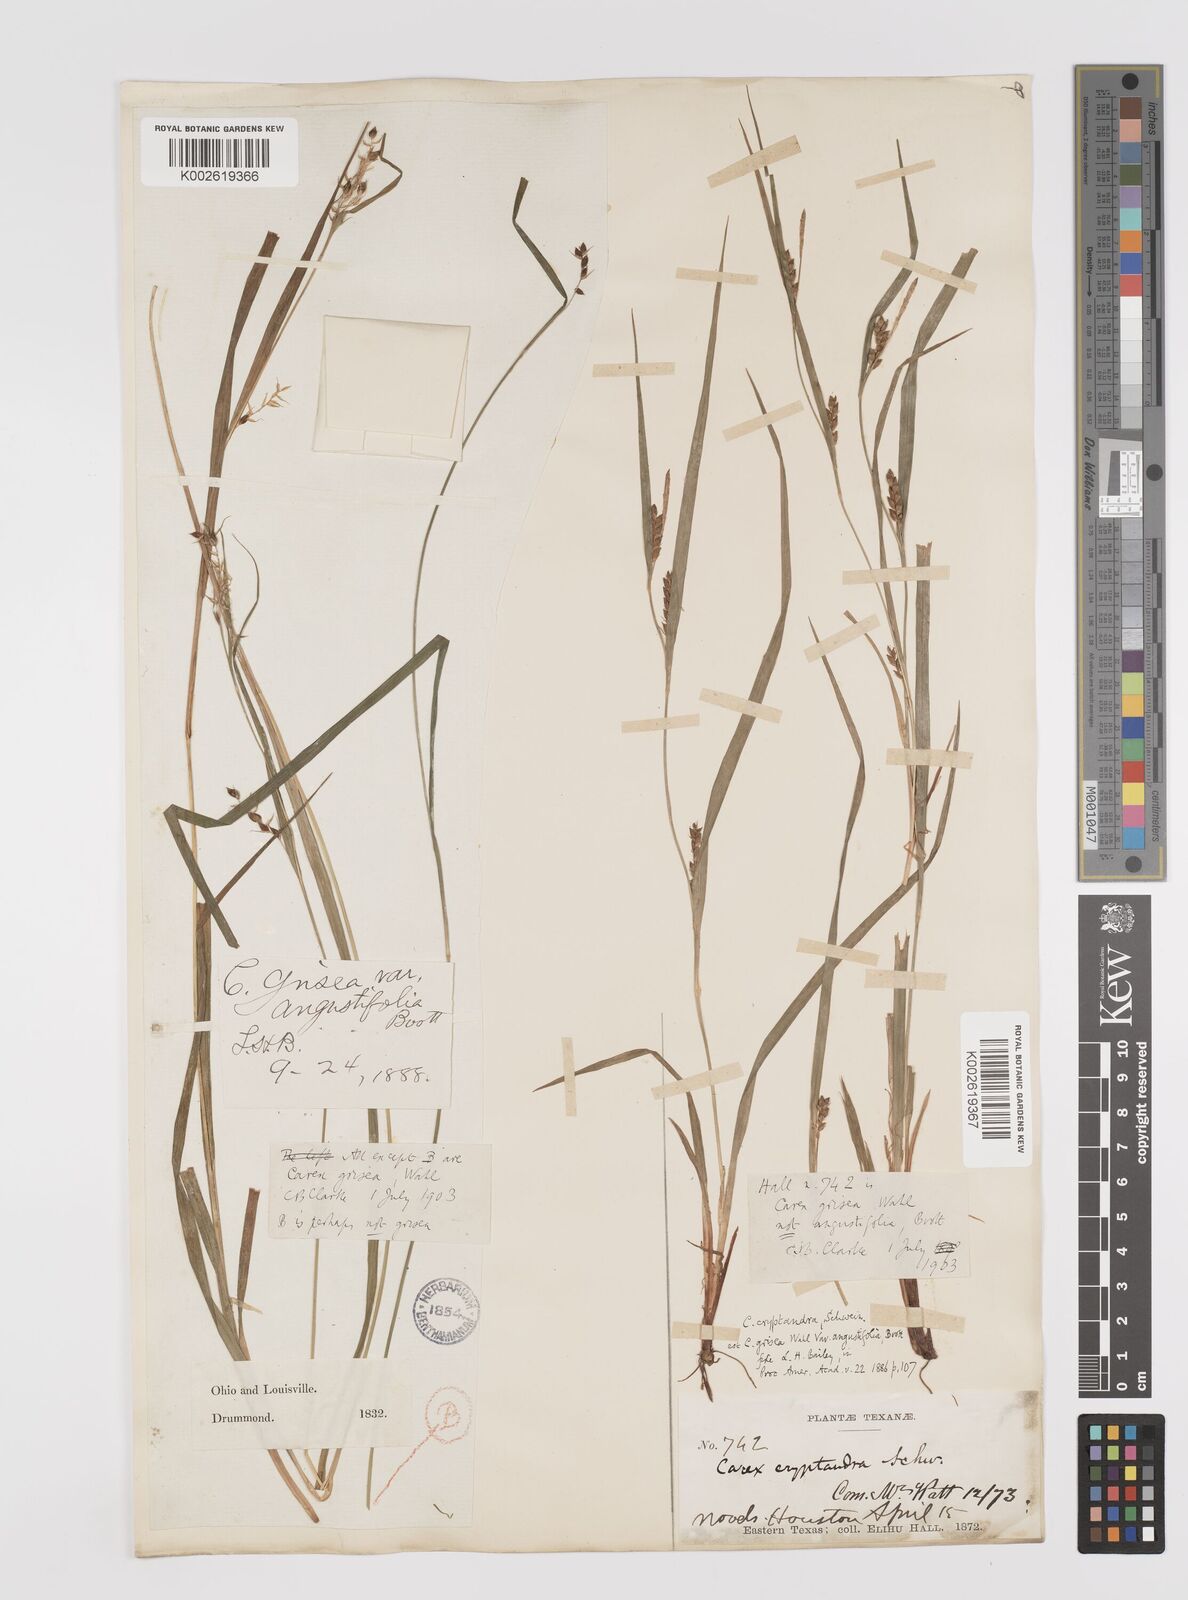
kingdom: Plantae
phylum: Tracheophyta
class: Liliopsida
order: Poales
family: Cyperaceae
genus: Carex
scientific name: Carex grisea
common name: Eastern narrow-leaved sedge
